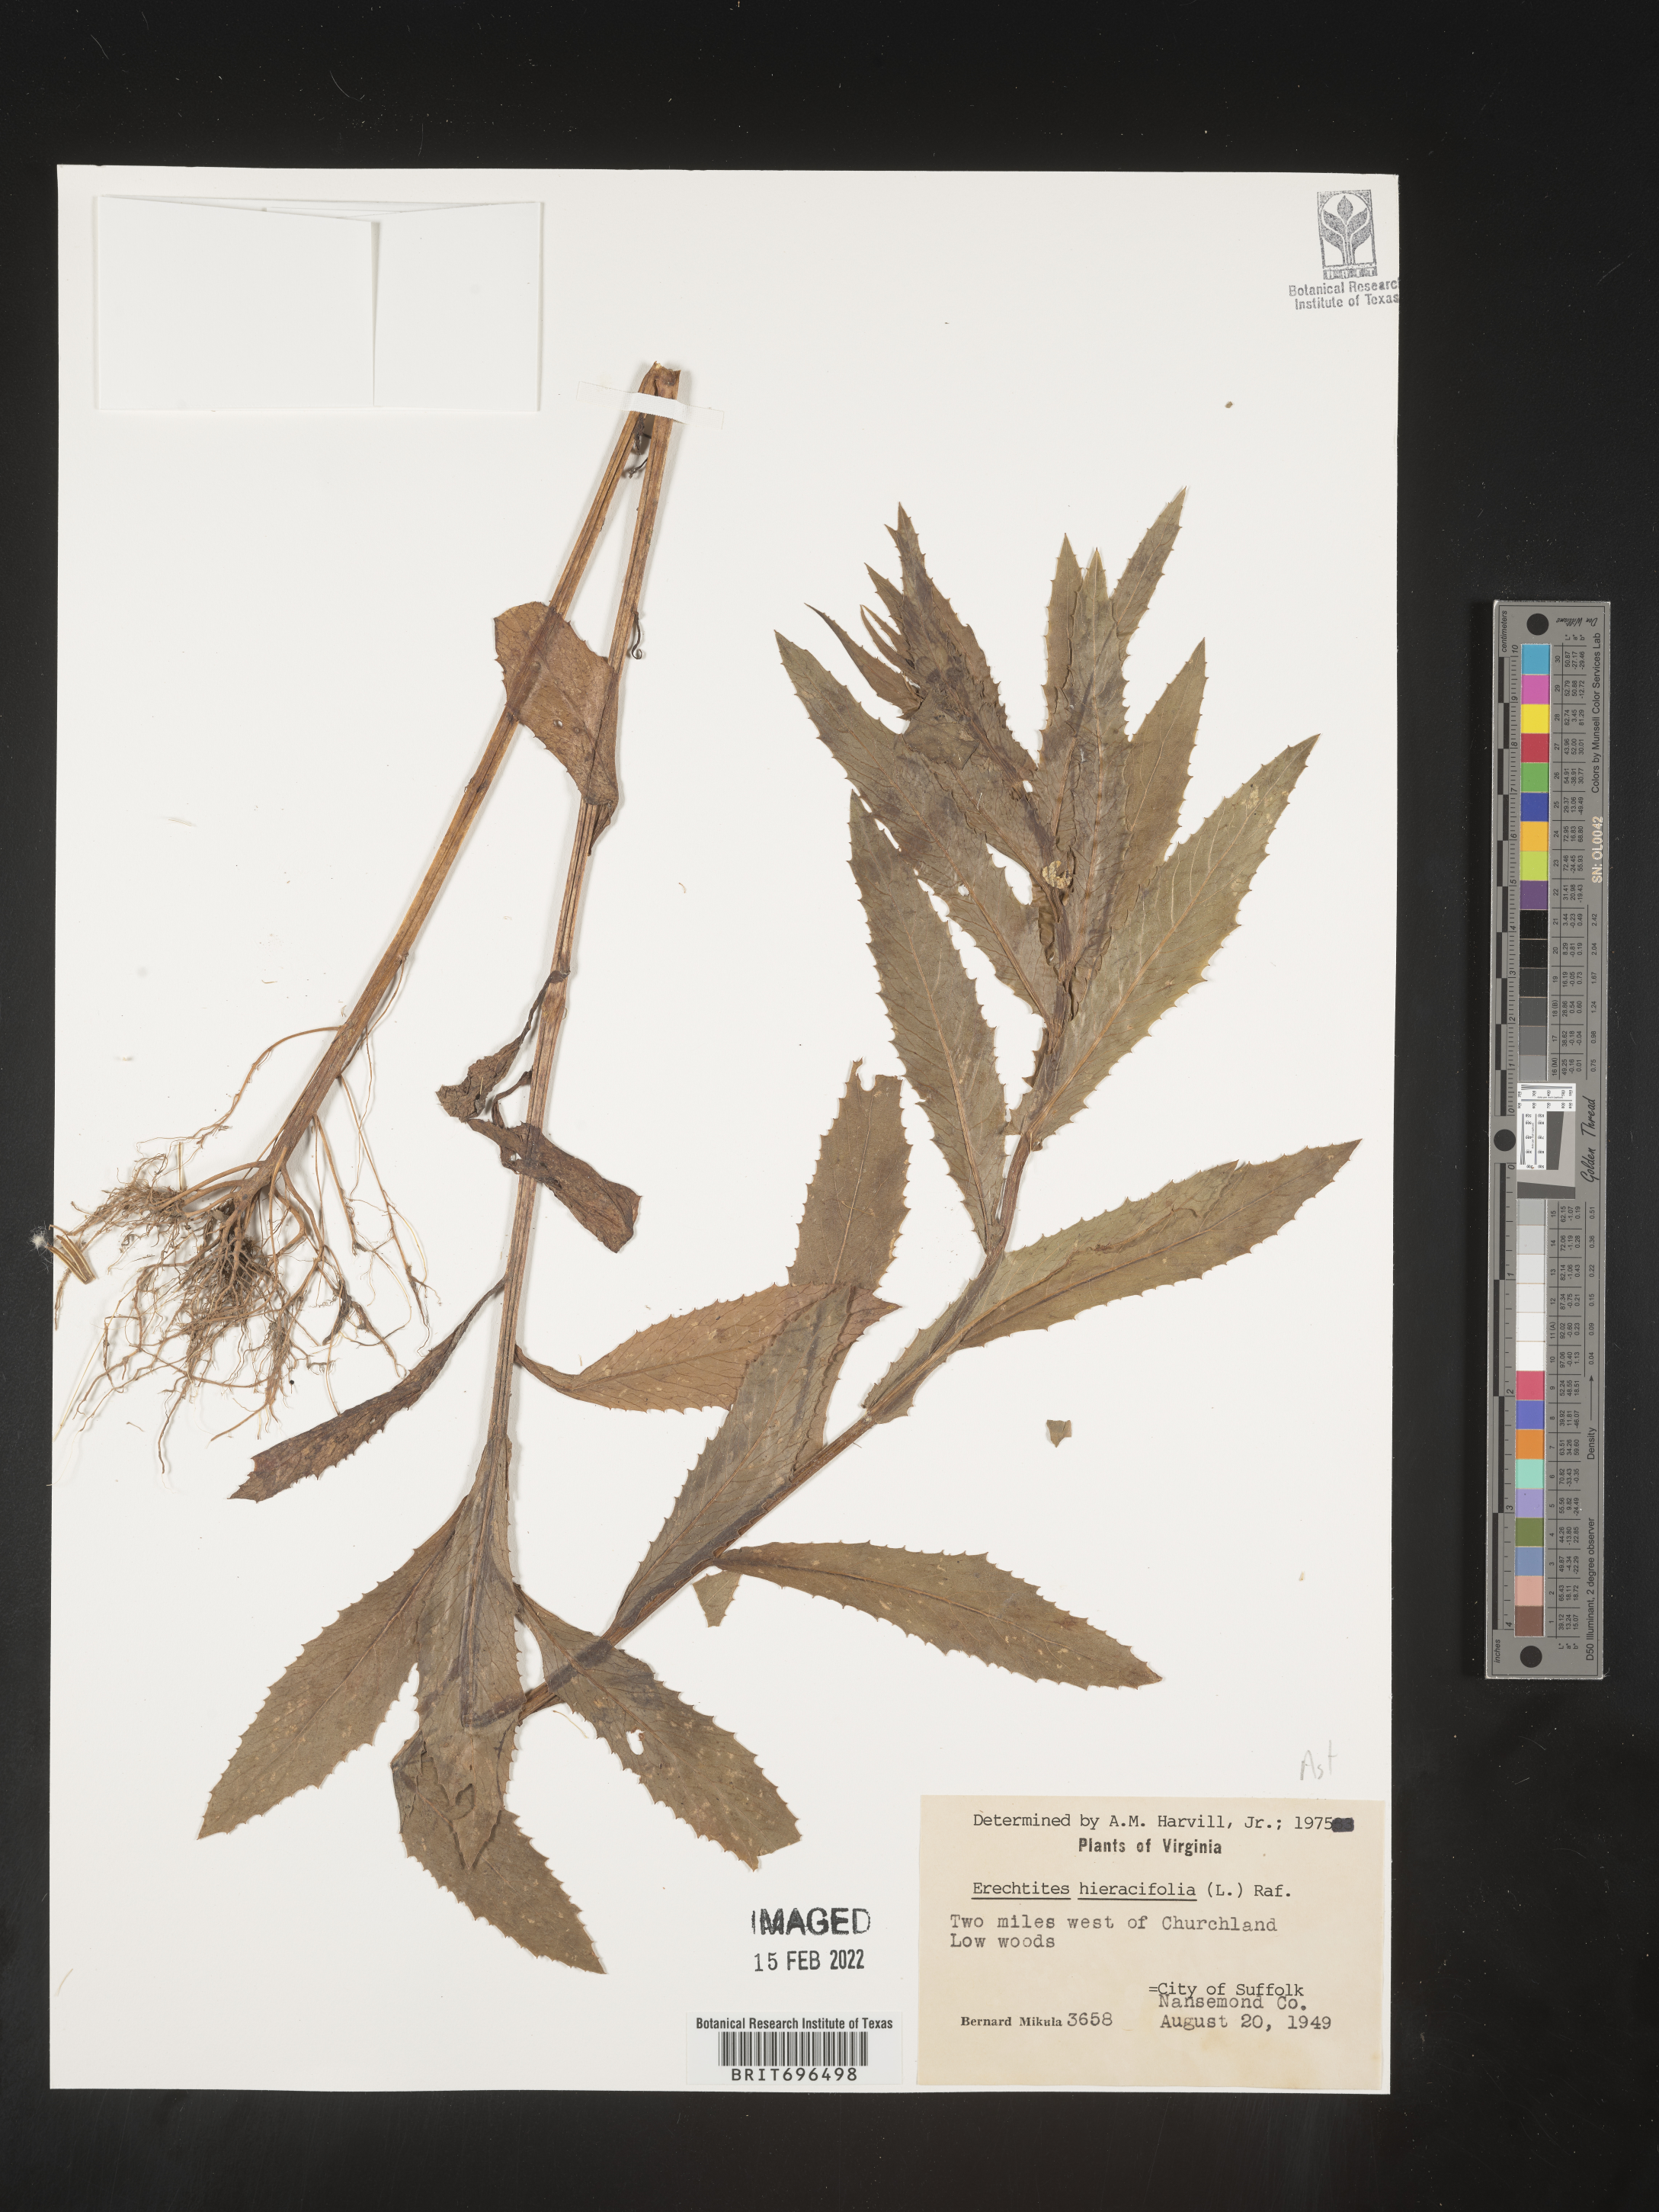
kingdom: Plantae
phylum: Tracheophyta
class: Magnoliopsida
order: Asterales
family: Asteraceae
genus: Erechtites
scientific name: Erechtites hieraciifolius
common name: American burnweed
